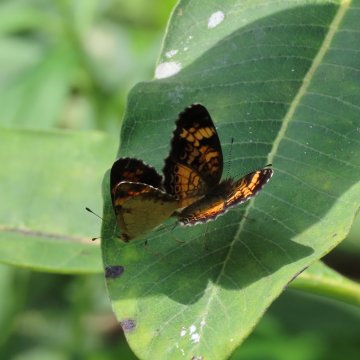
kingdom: Animalia
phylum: Arthropoda
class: Insecta
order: Lepidoptera
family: Nymphalidae
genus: Phyciodes
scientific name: Phyciodes tharos
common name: Pearl Crescent
